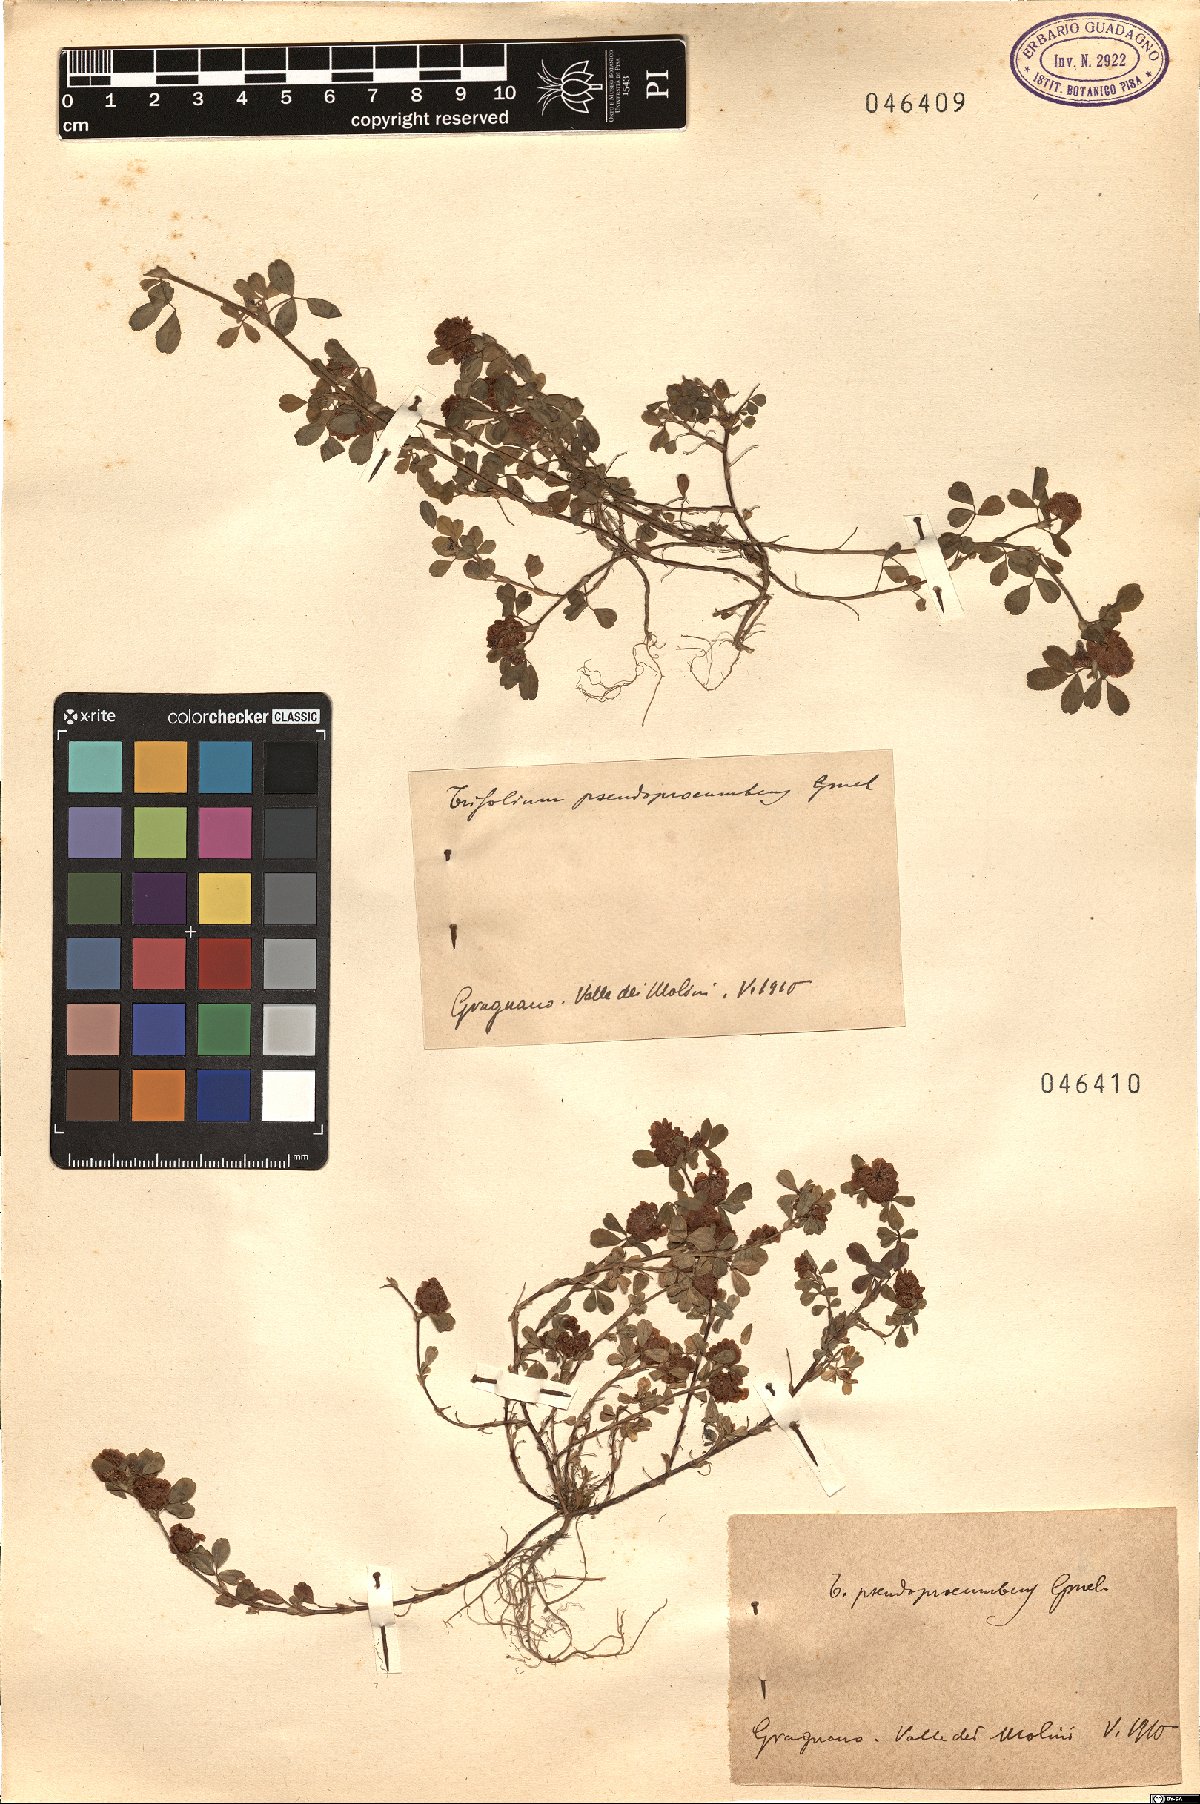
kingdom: Plantae
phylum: Tracheophyta
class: Magnoliopsida
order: Fabales
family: Fabaceae
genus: Trifolium
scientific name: Trifolium campestre
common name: Field clover
